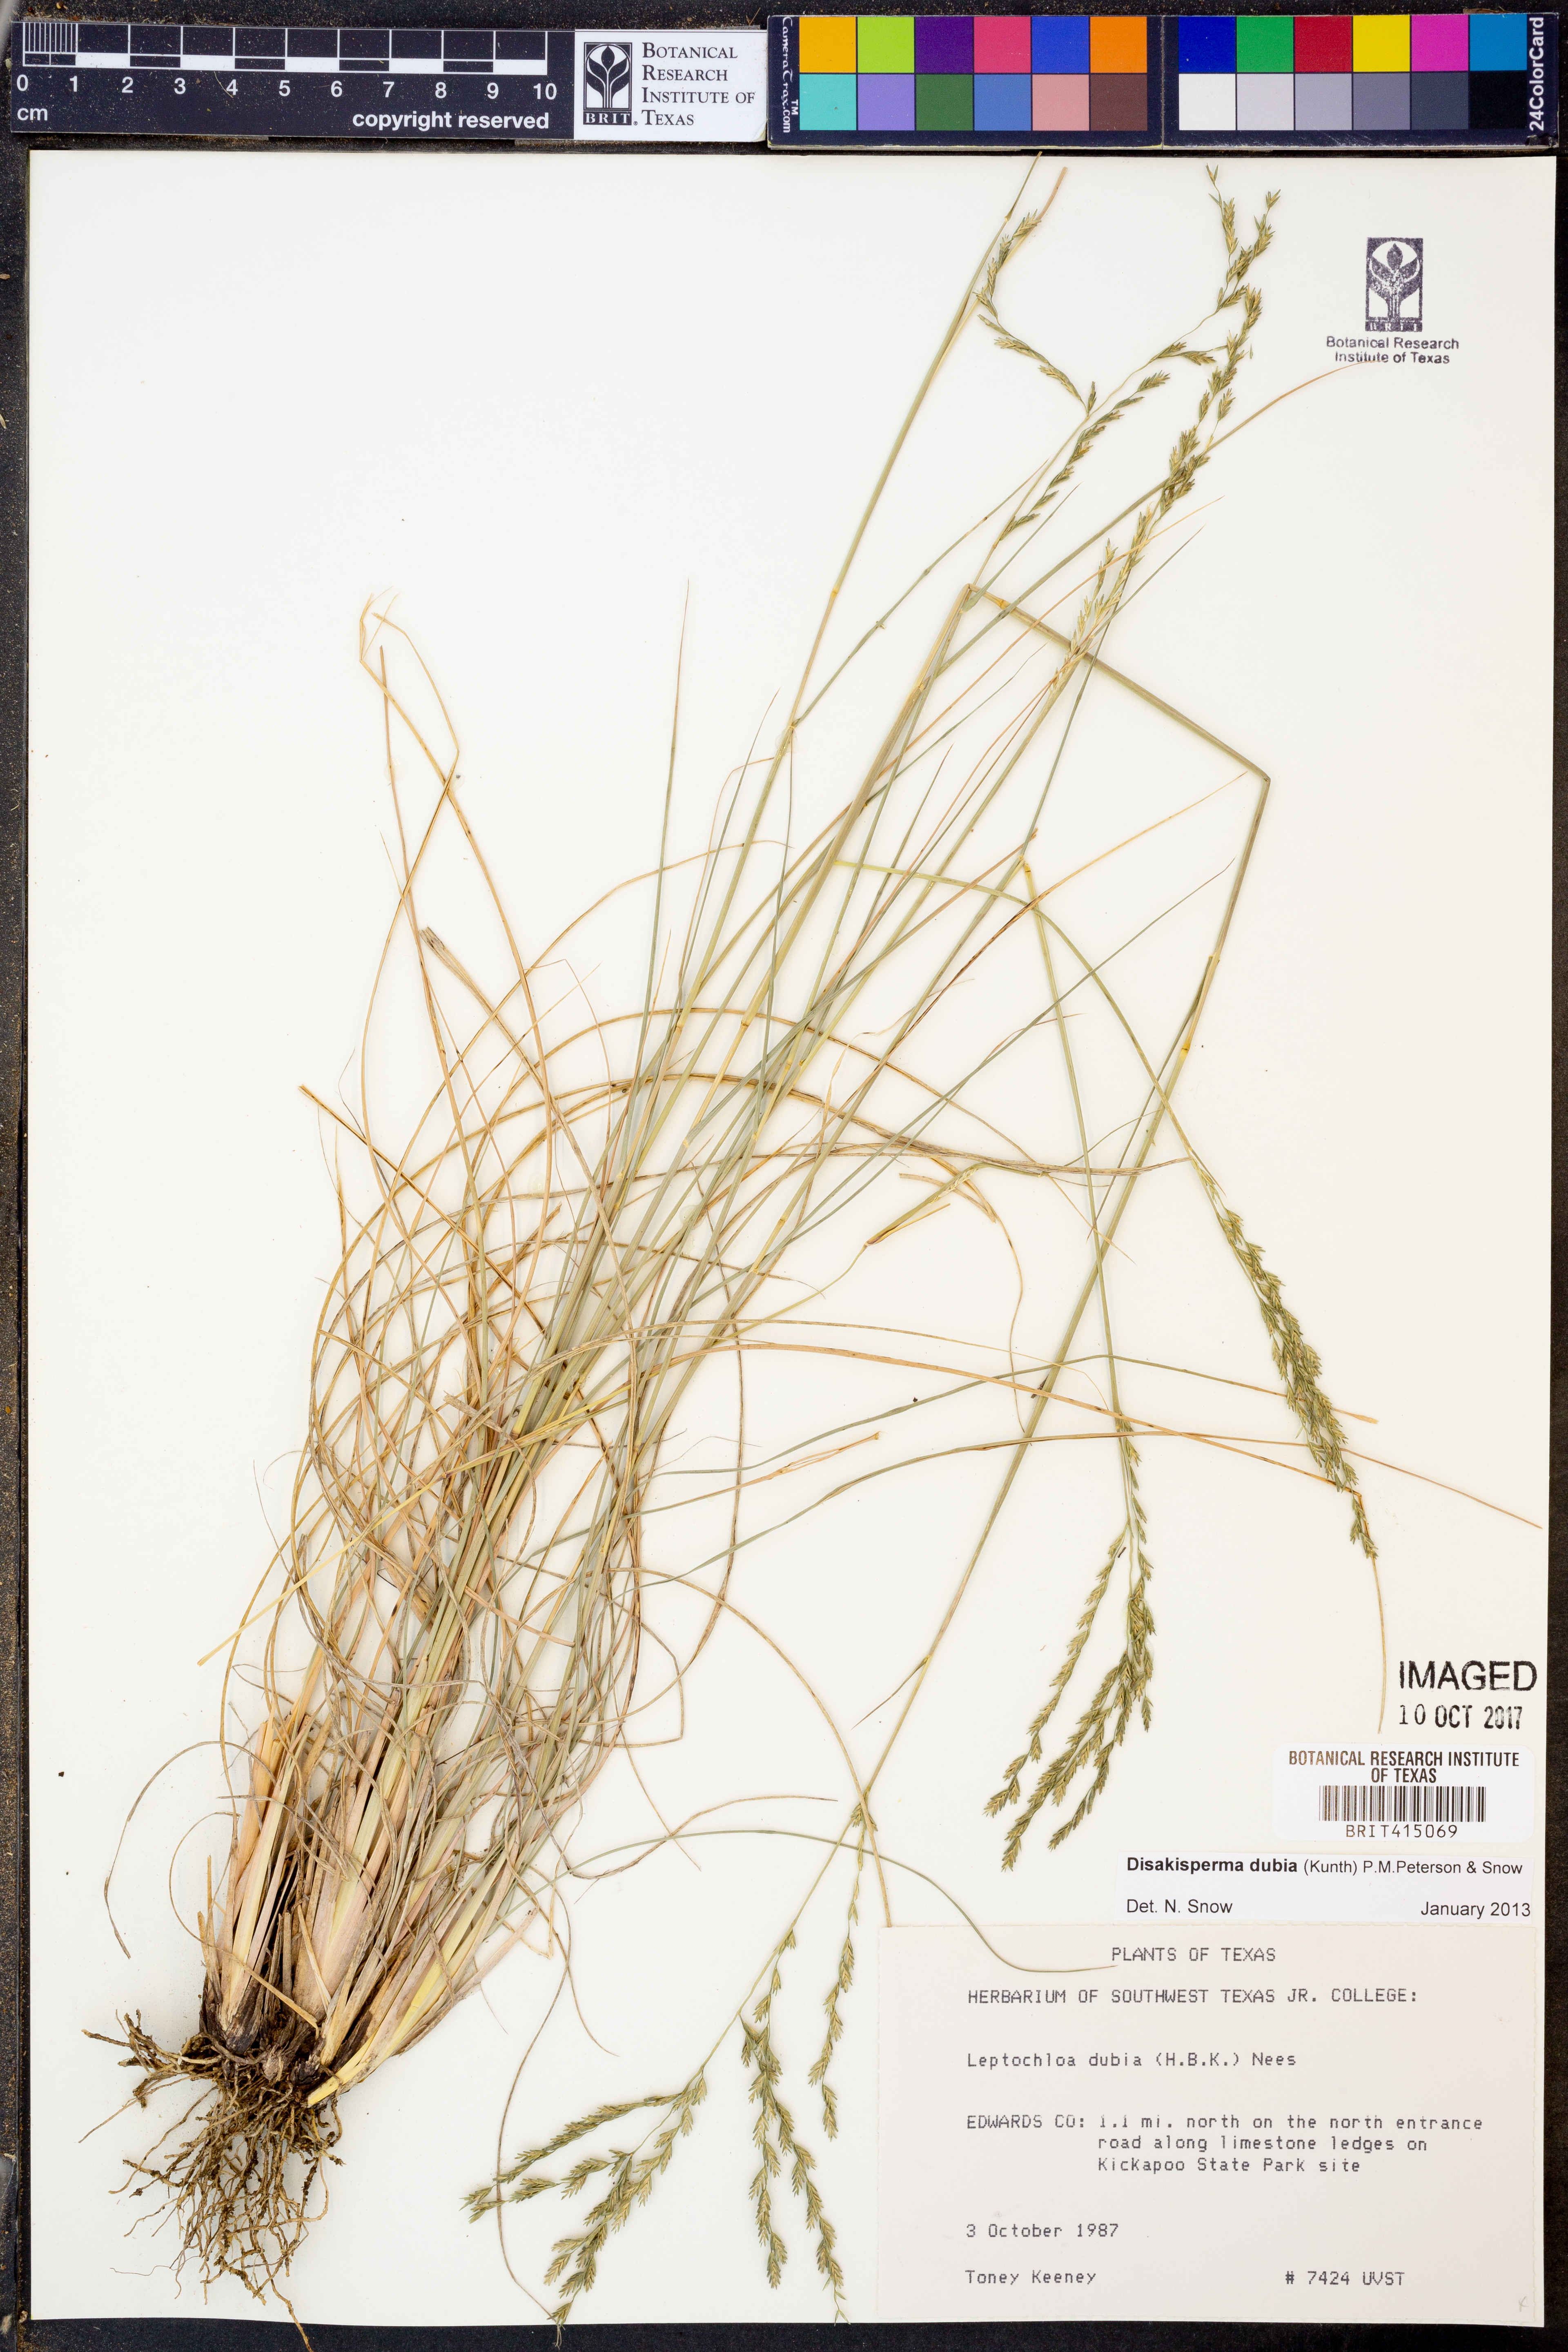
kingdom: Plantae
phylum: Tracheophyta
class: Liliopsida
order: Poales
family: Poaceae
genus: Disakisperma
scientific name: Disakisperma dubium
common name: Green sprangletop
